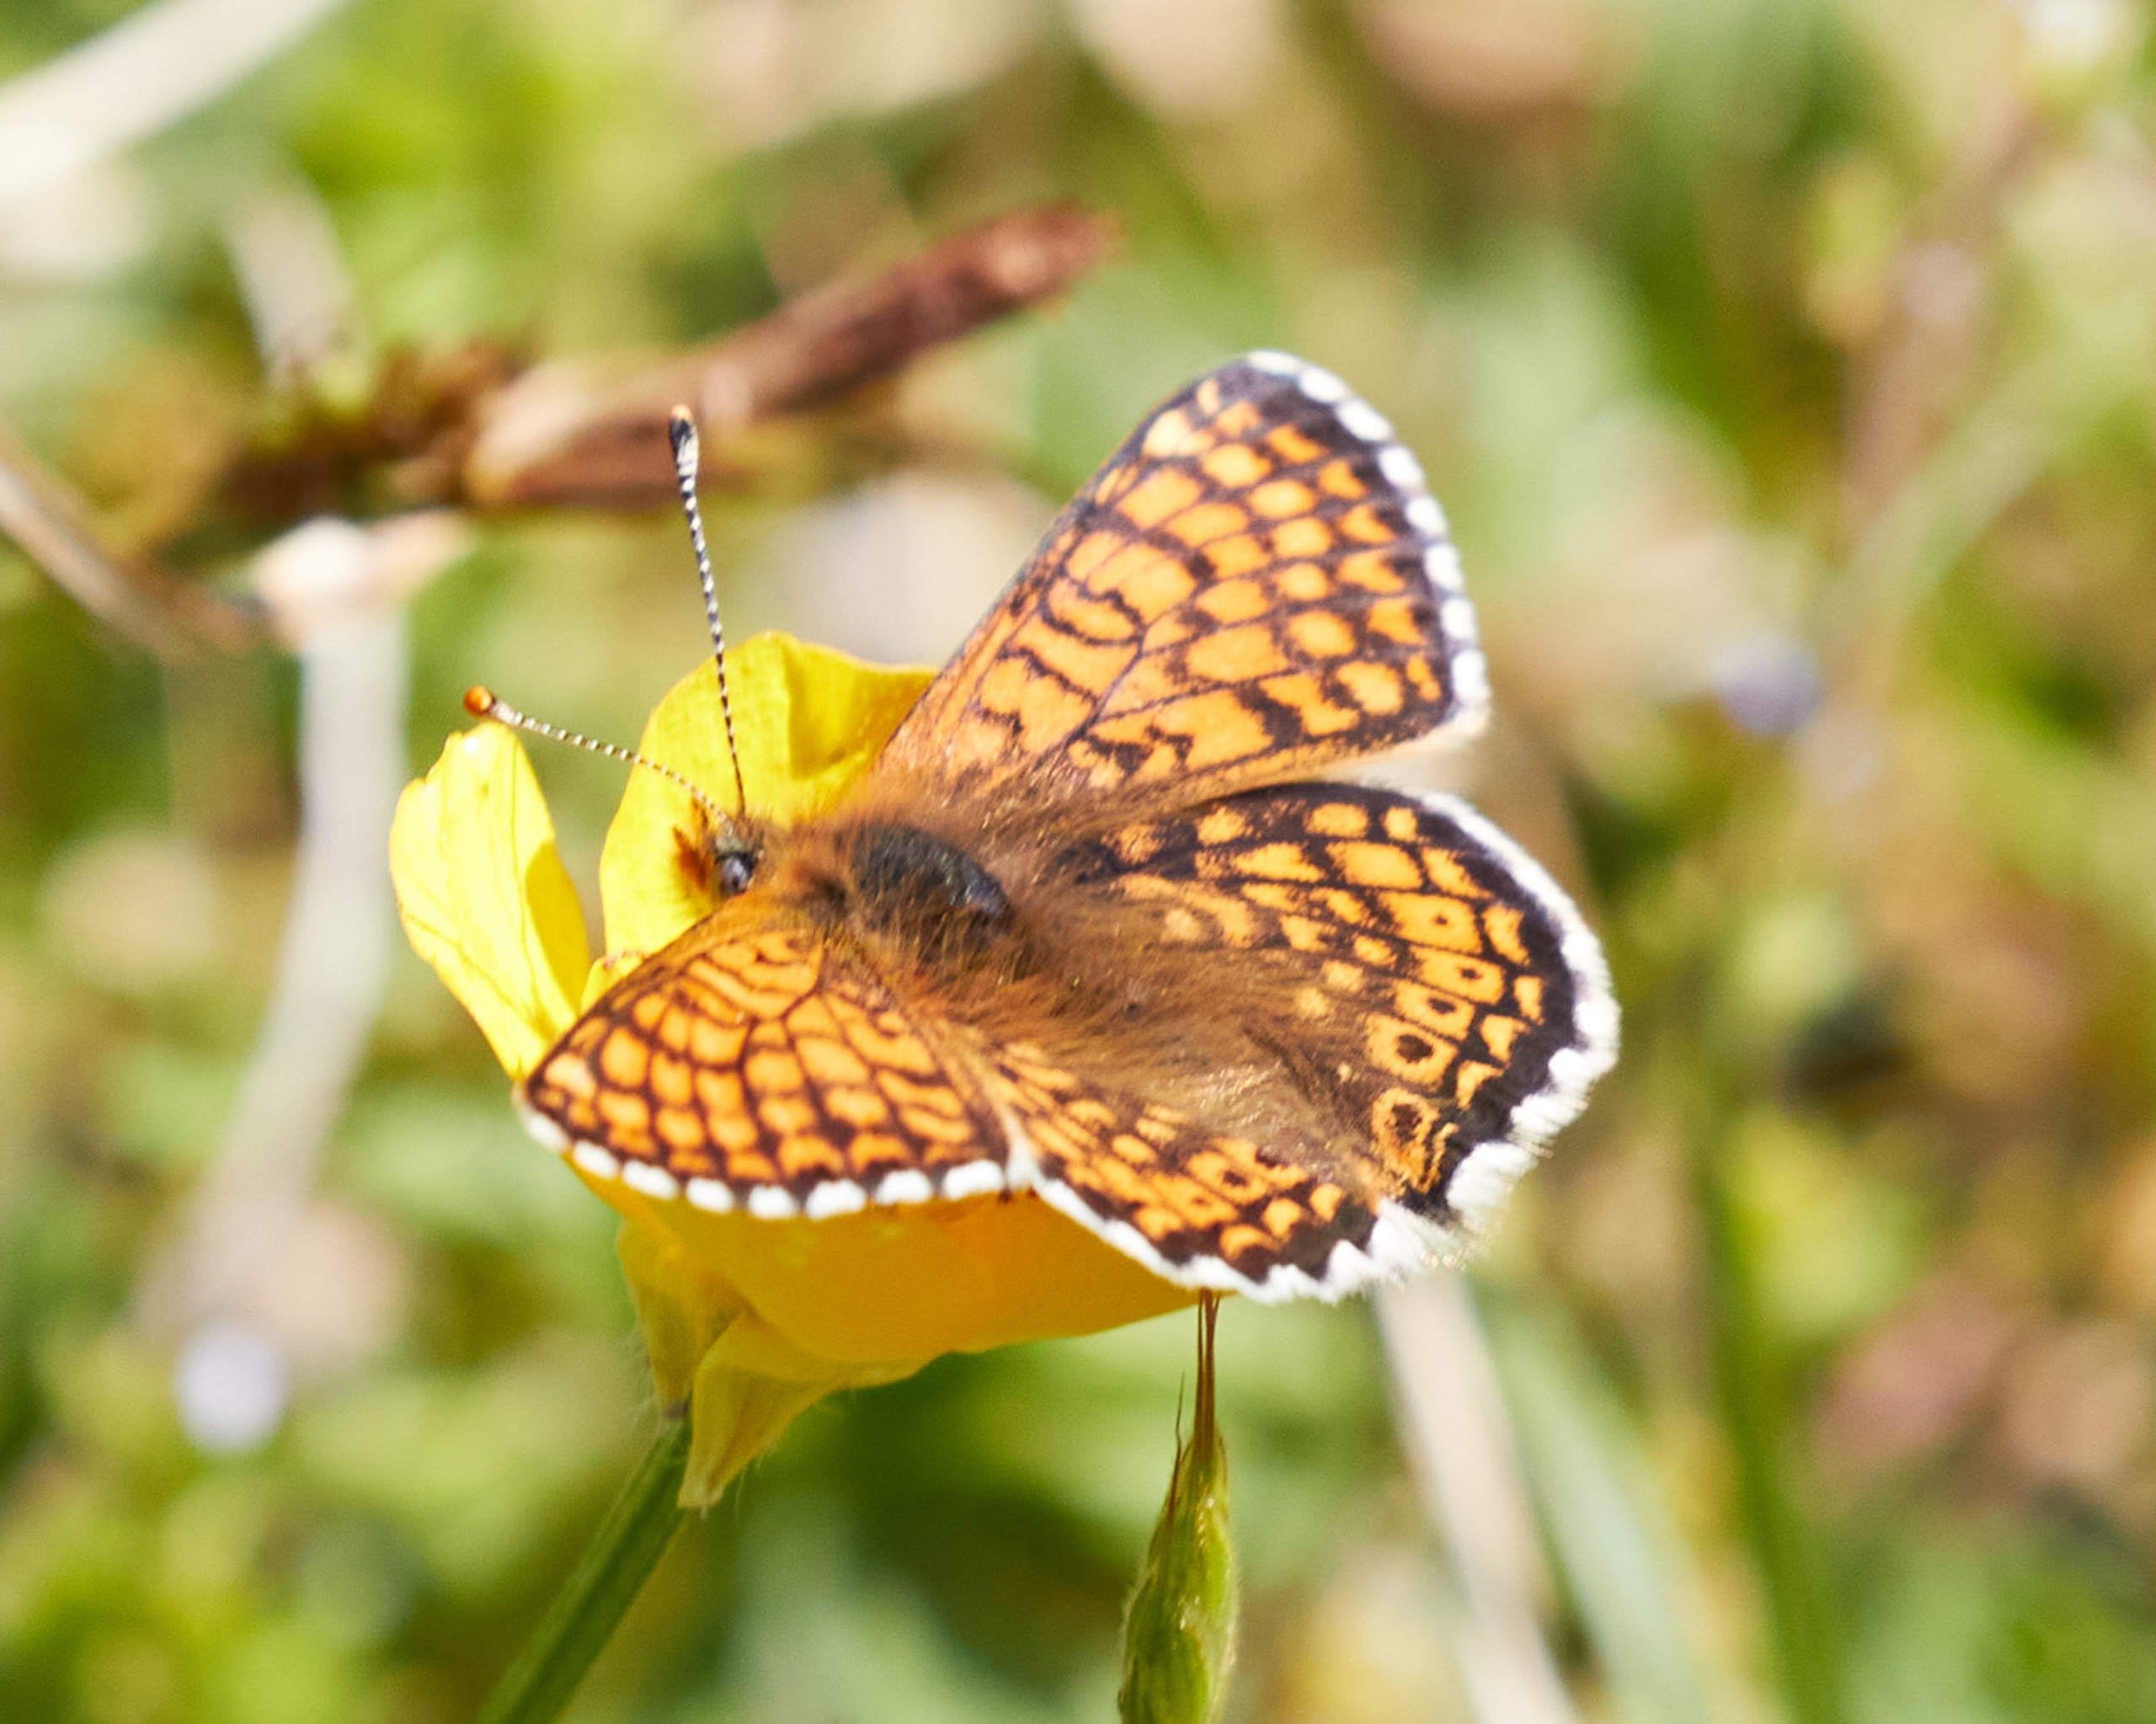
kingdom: Animalia
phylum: Arthropoda
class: Insecta
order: Lepidoptera
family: Nymphalidae
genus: Melitaea
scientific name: Melitaea cinxia
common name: Okkergul pletvinge
